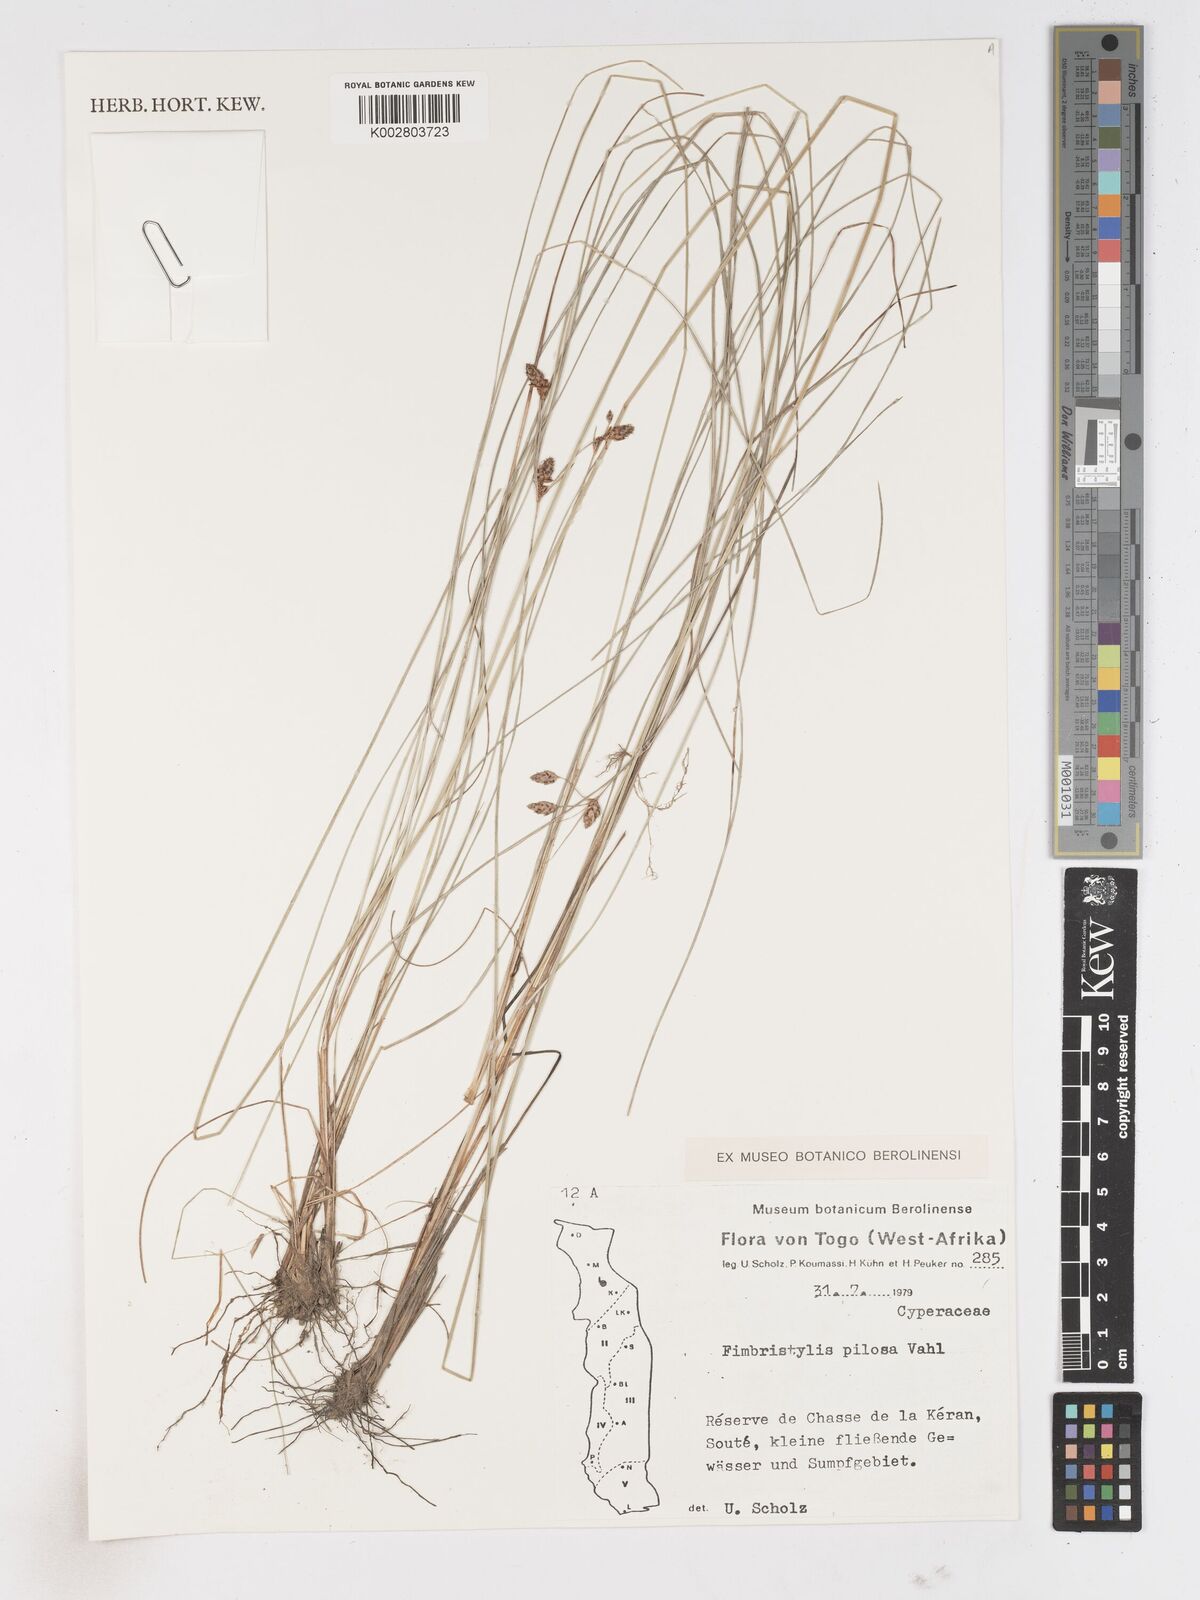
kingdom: Plantae
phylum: Tracheophyta
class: Liliopsida
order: Poales
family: Cyperaceae
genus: Bulbostylis
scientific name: Bulbostylis pilosa
